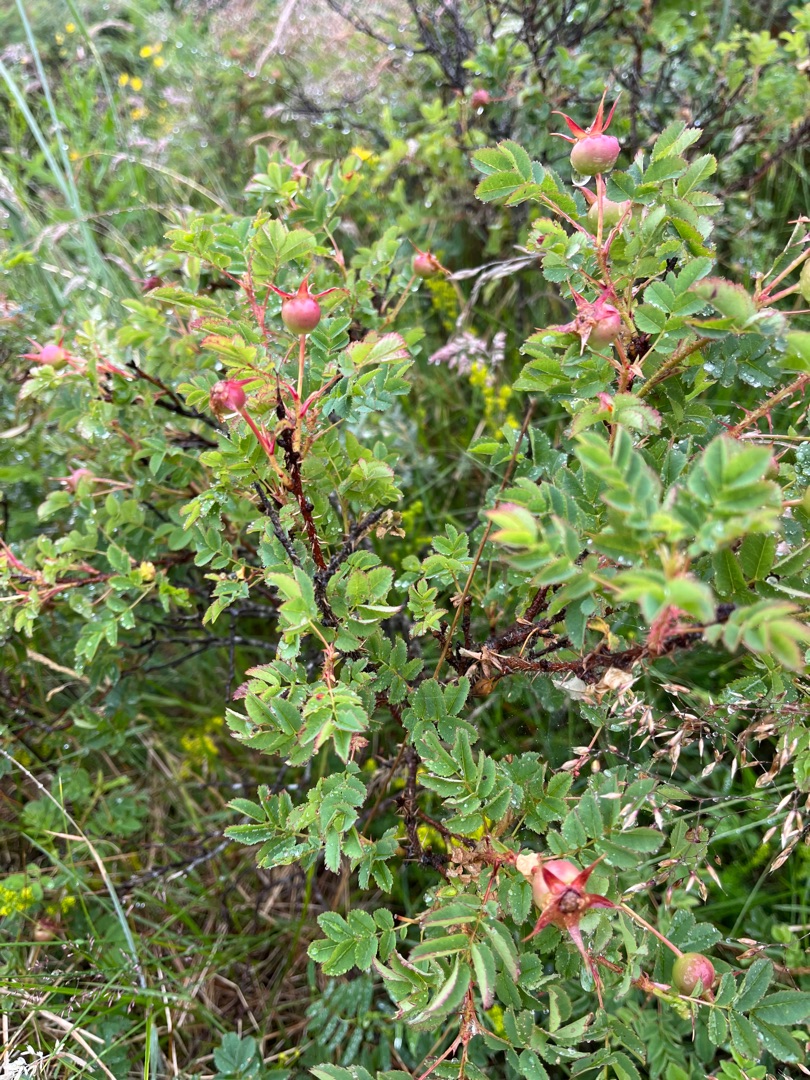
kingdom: Plantae
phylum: Tracheophyta
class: Magnoliopsida
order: Rosales
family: Rosaceae
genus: Rosa
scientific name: Rosa spinosissima
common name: Klit-rose
